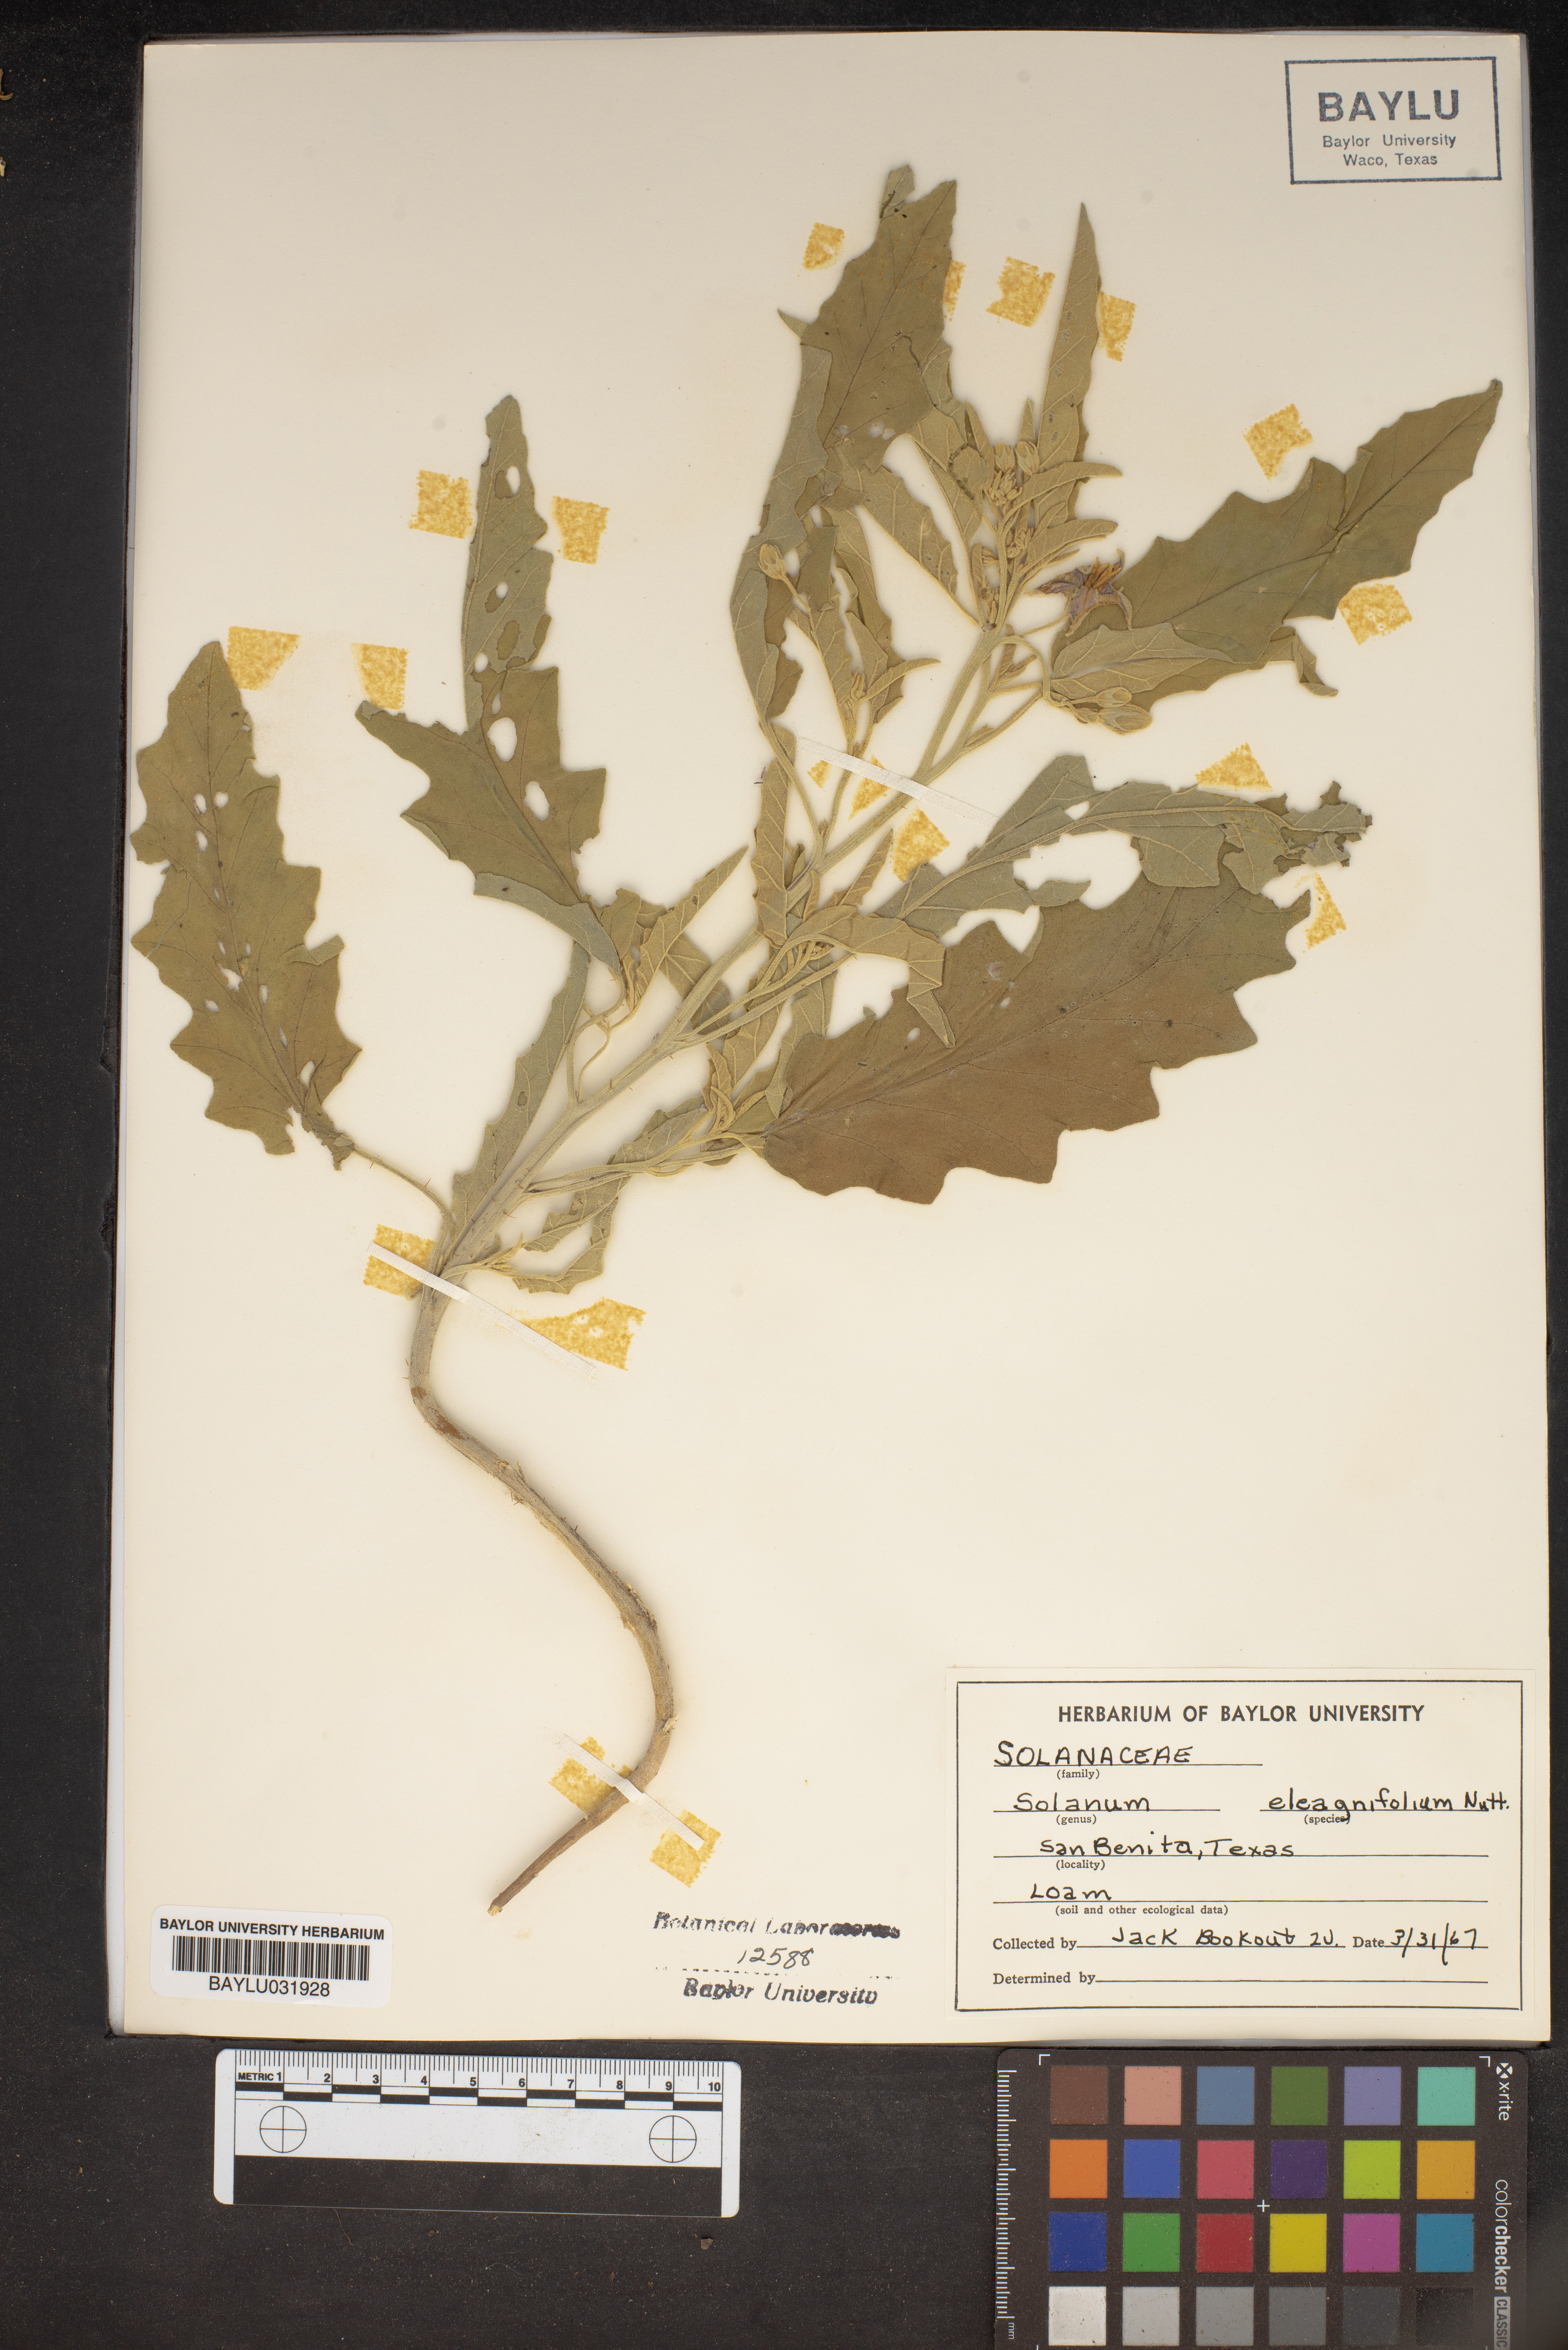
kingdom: Plantae
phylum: Tracheophyta
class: Magnoliopsida
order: Solanales
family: Solanaceae
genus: Solanum
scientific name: Solanum elaeagnifolium
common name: Silverleaf nightshade
